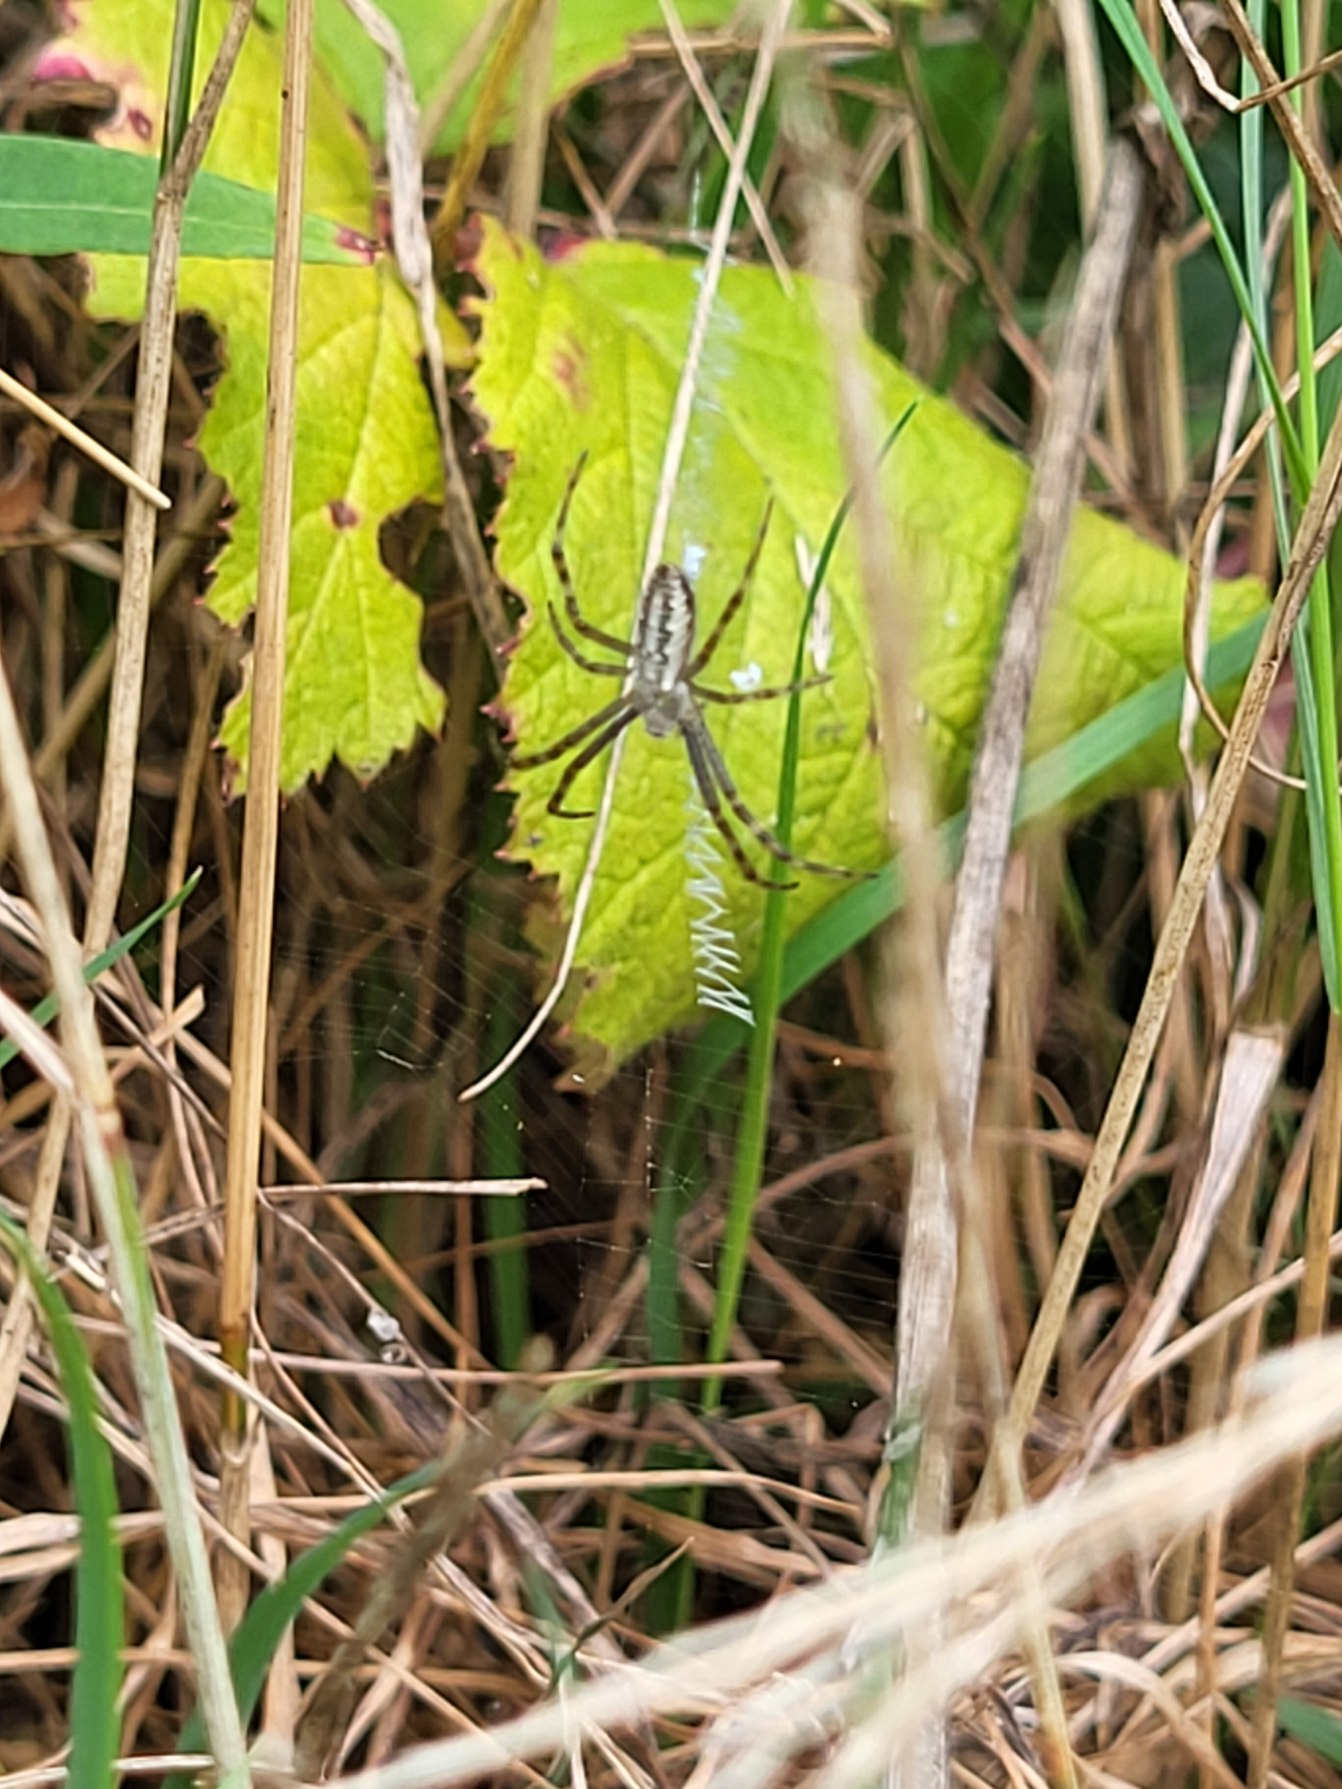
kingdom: Animalia
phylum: Arthropoda
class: Arachnida
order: Araneae
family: Araneidae
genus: Argiope
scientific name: Argiope bruennichi
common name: Hvepseedderkop
